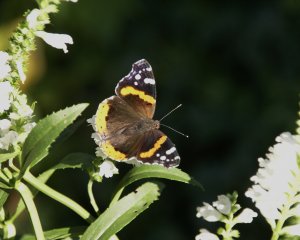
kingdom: Animalia
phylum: Arthropoda
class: Insecta
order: Lepidoptera
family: Nymphalidae
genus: Vanessa
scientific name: Vanessa atalanta
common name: Red Admiral
